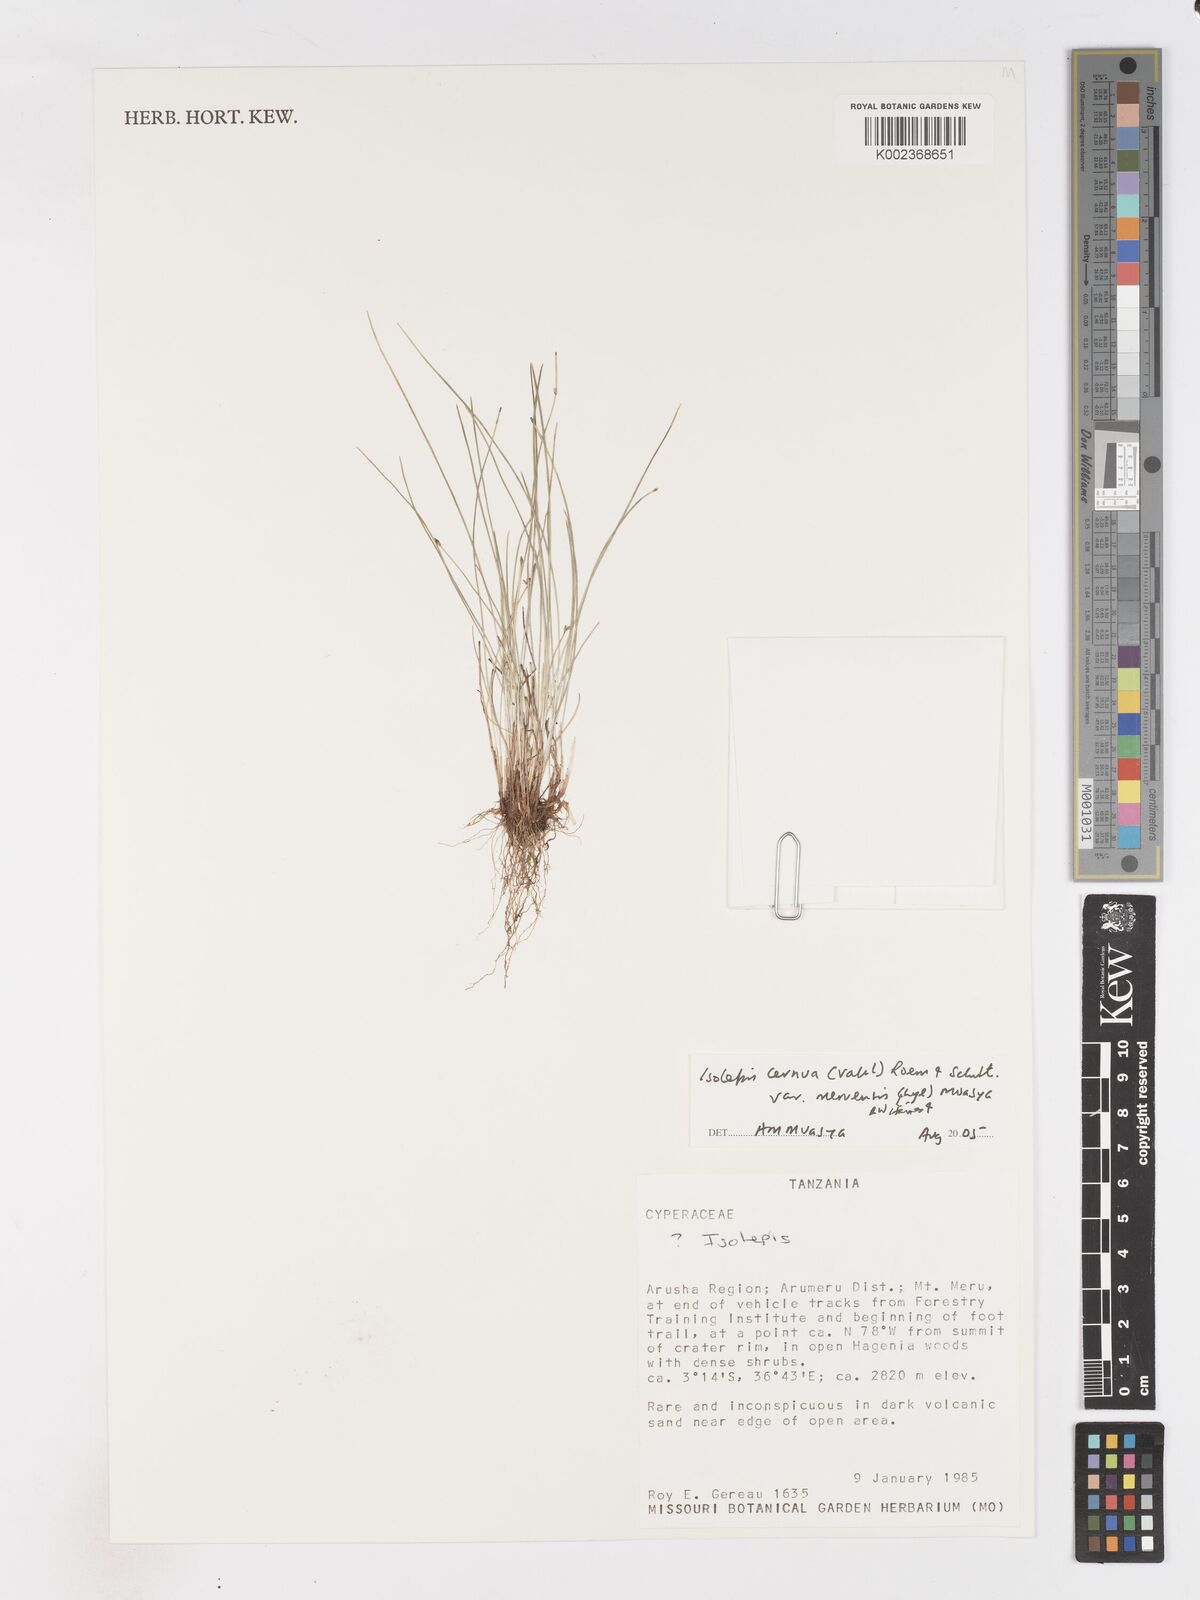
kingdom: Plantae
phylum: Tracheophyta
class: Liliopsida
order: Poales
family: Cyperaceae
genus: Isolepis
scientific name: Isolepis cernua
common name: Slender club-rush
